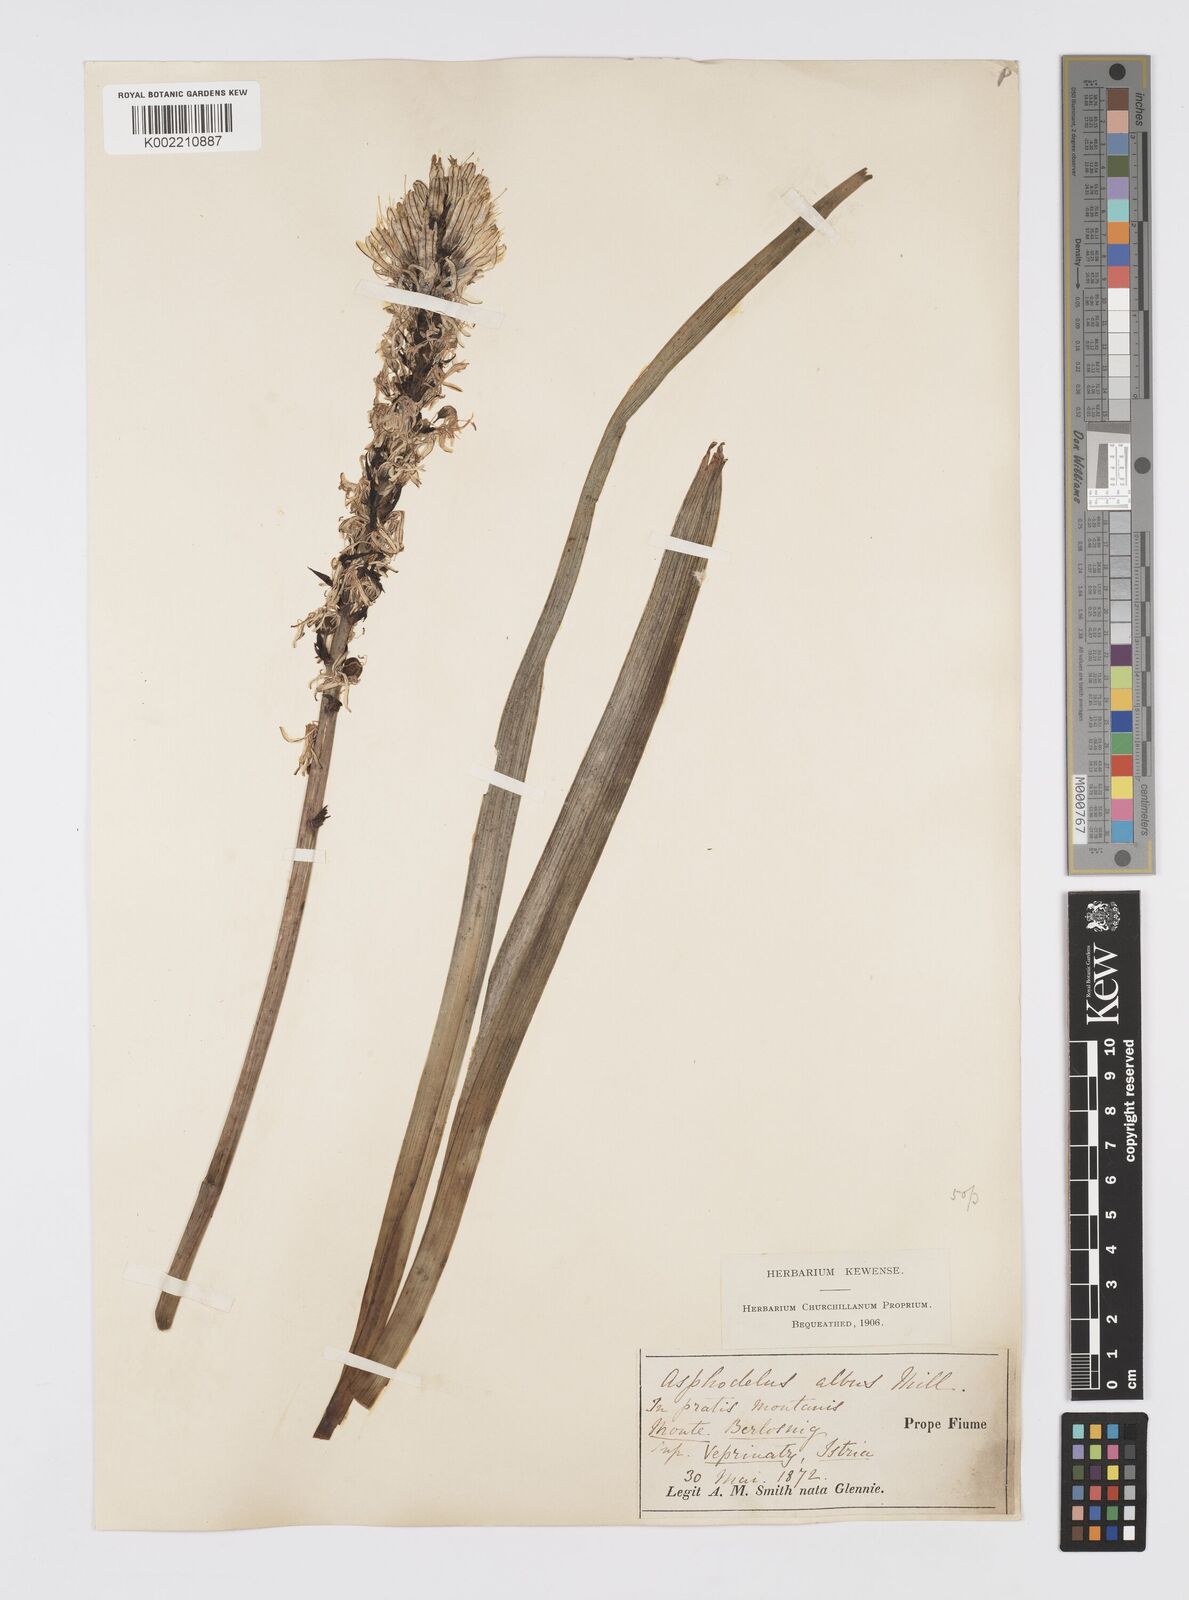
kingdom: Plantae
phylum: Tracheophyta
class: Liliopsida
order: Asparagales
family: Asphodelaceae
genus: Asphodelus
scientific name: Asphodelus albus
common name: White asphodel
